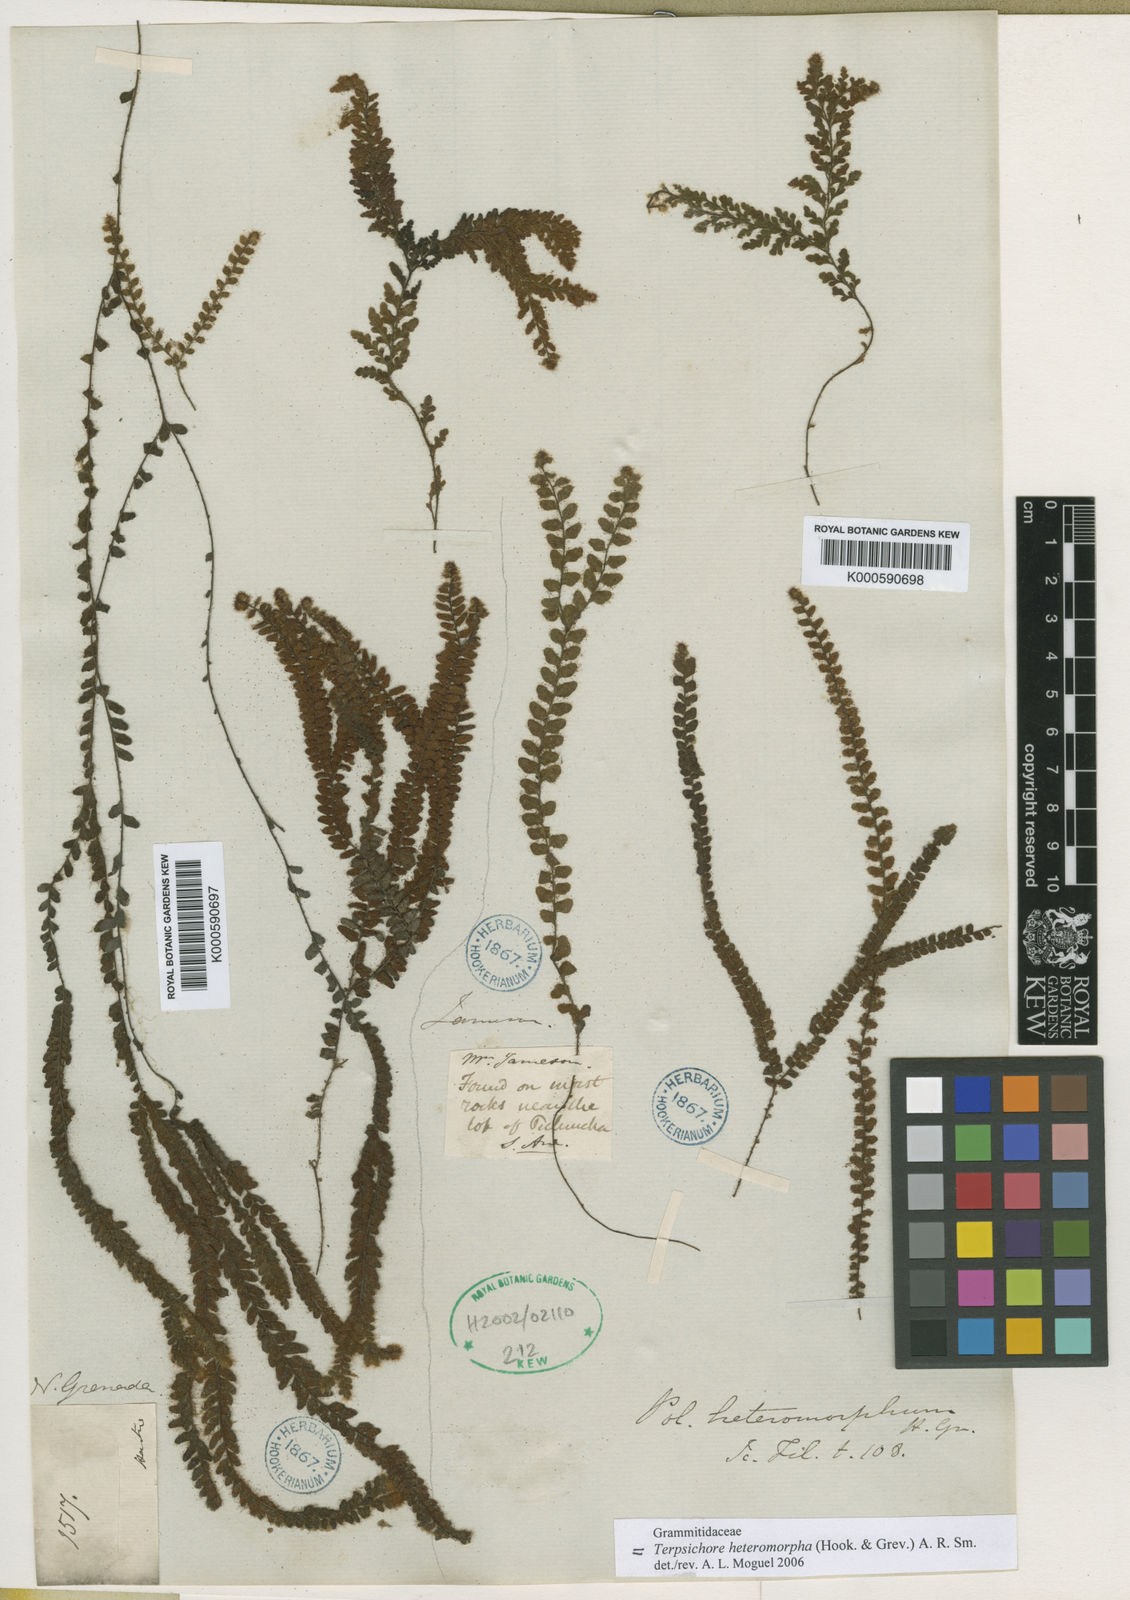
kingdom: Plantae
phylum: Tracheophyta
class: Polypodiopsida
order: Polypodiales
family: Polypodiaceae
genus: Alansmia
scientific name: Alansmia heteromorpha
